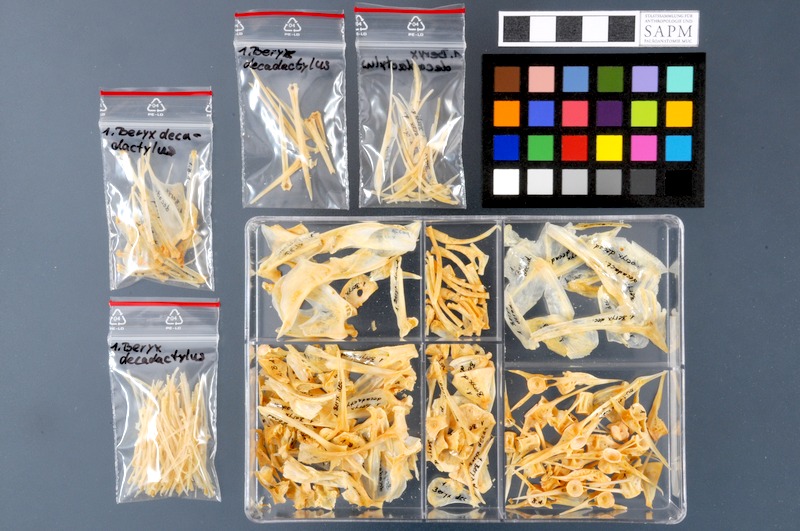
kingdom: Animalia
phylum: Chordata
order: Beryciformes
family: Berycidae
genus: Beryx
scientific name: Beryx decadactylus
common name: Alfonsino
